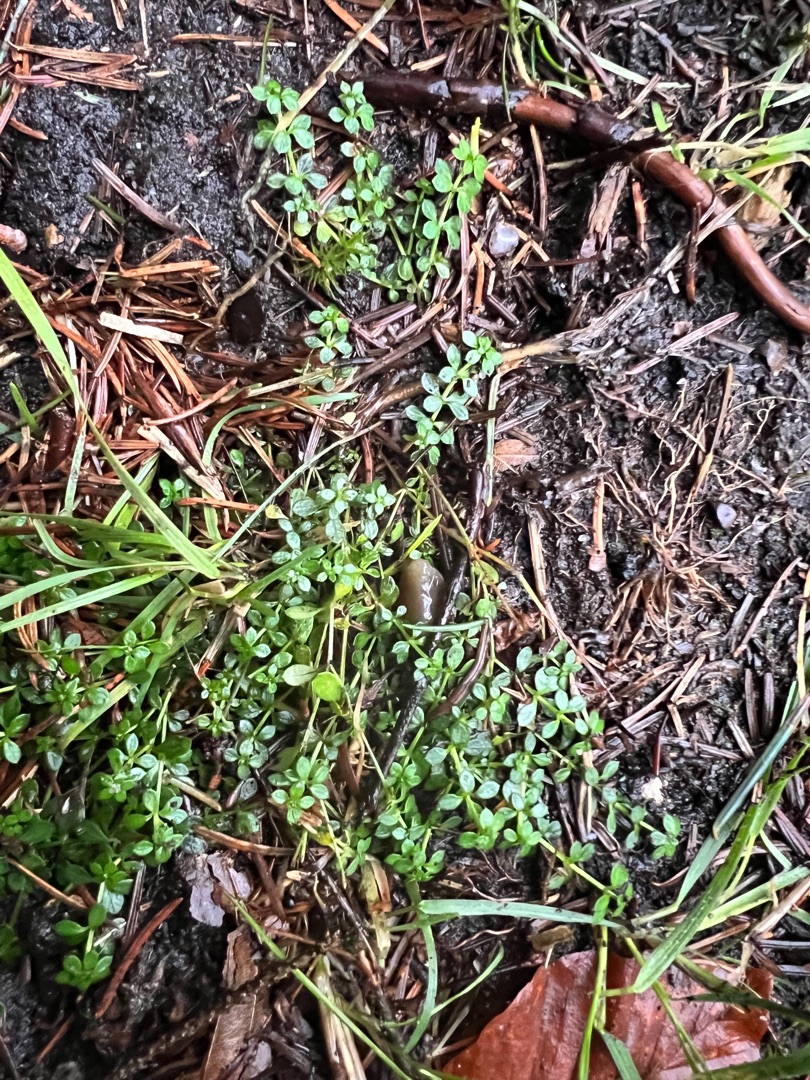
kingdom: Plantae
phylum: Tracheophyta
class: Magnoliopsida
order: Gentianales
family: Rubiaceae
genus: Galium
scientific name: Galium saxatile
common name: Lyng-snerre
